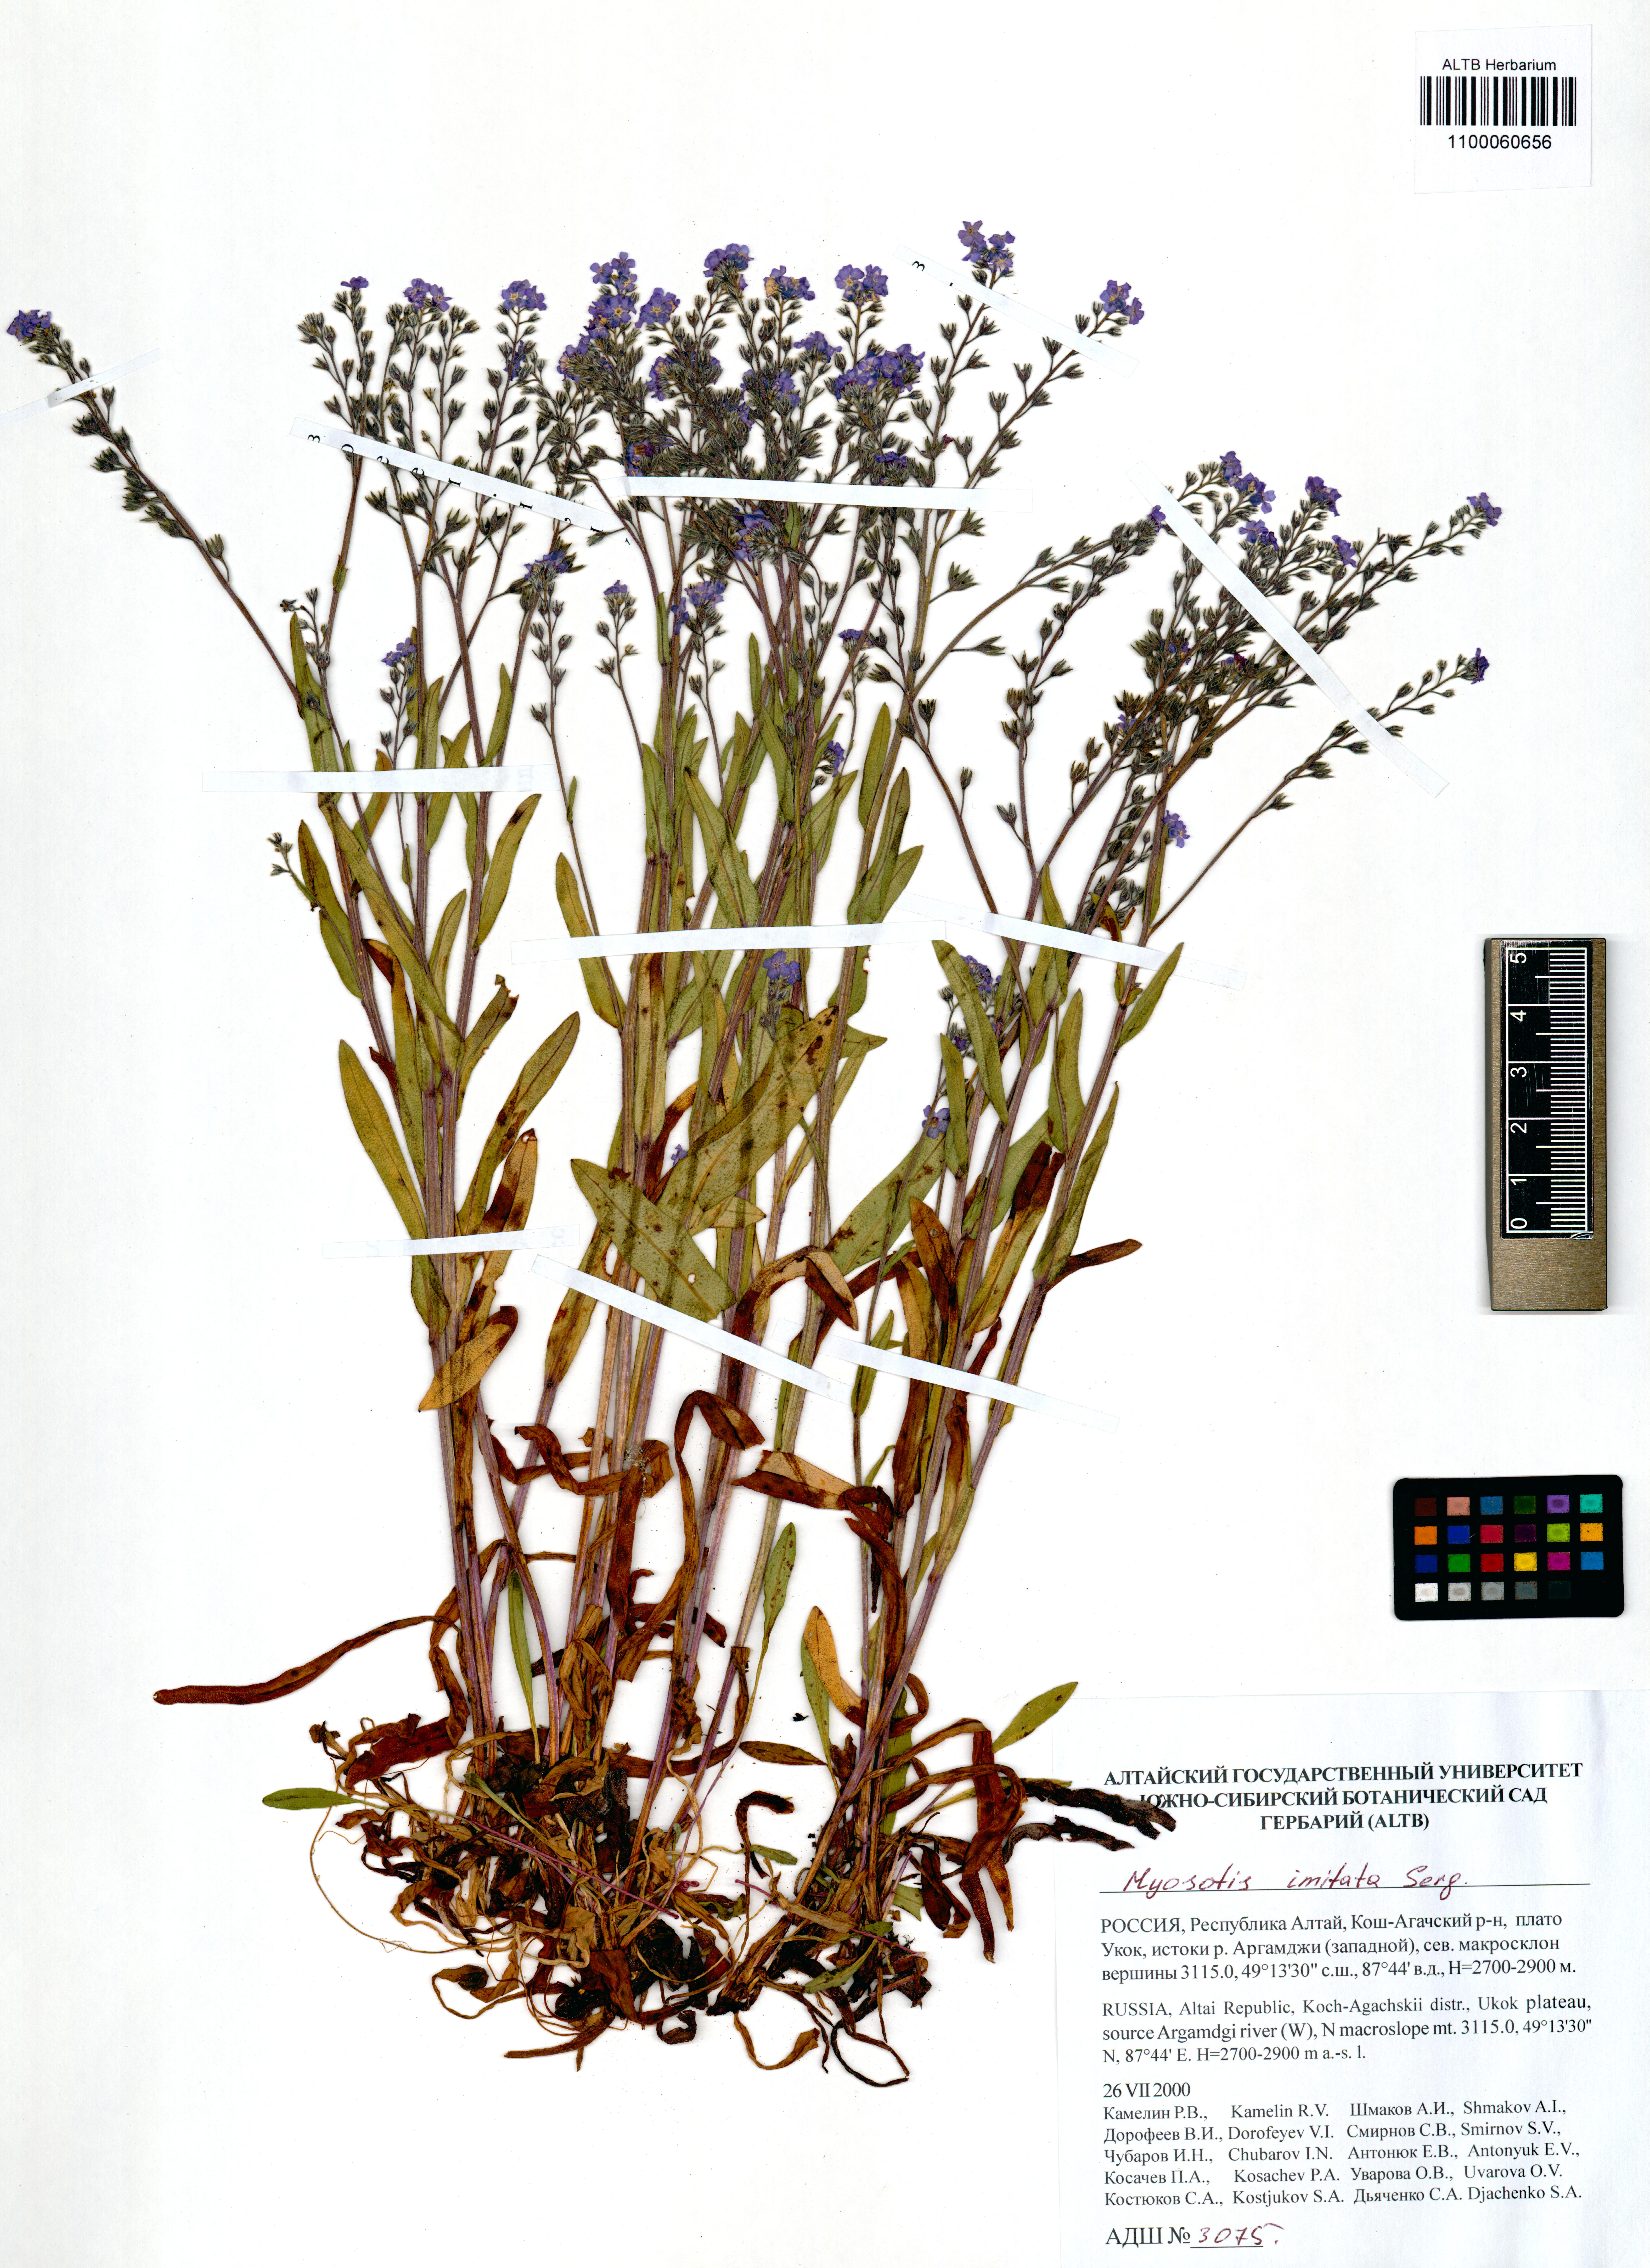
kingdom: Plantae
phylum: Tracheophyta
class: Magnoliopsida
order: Boraginales
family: Boraginaceae
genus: Myosotis
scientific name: Myosotis imitata
